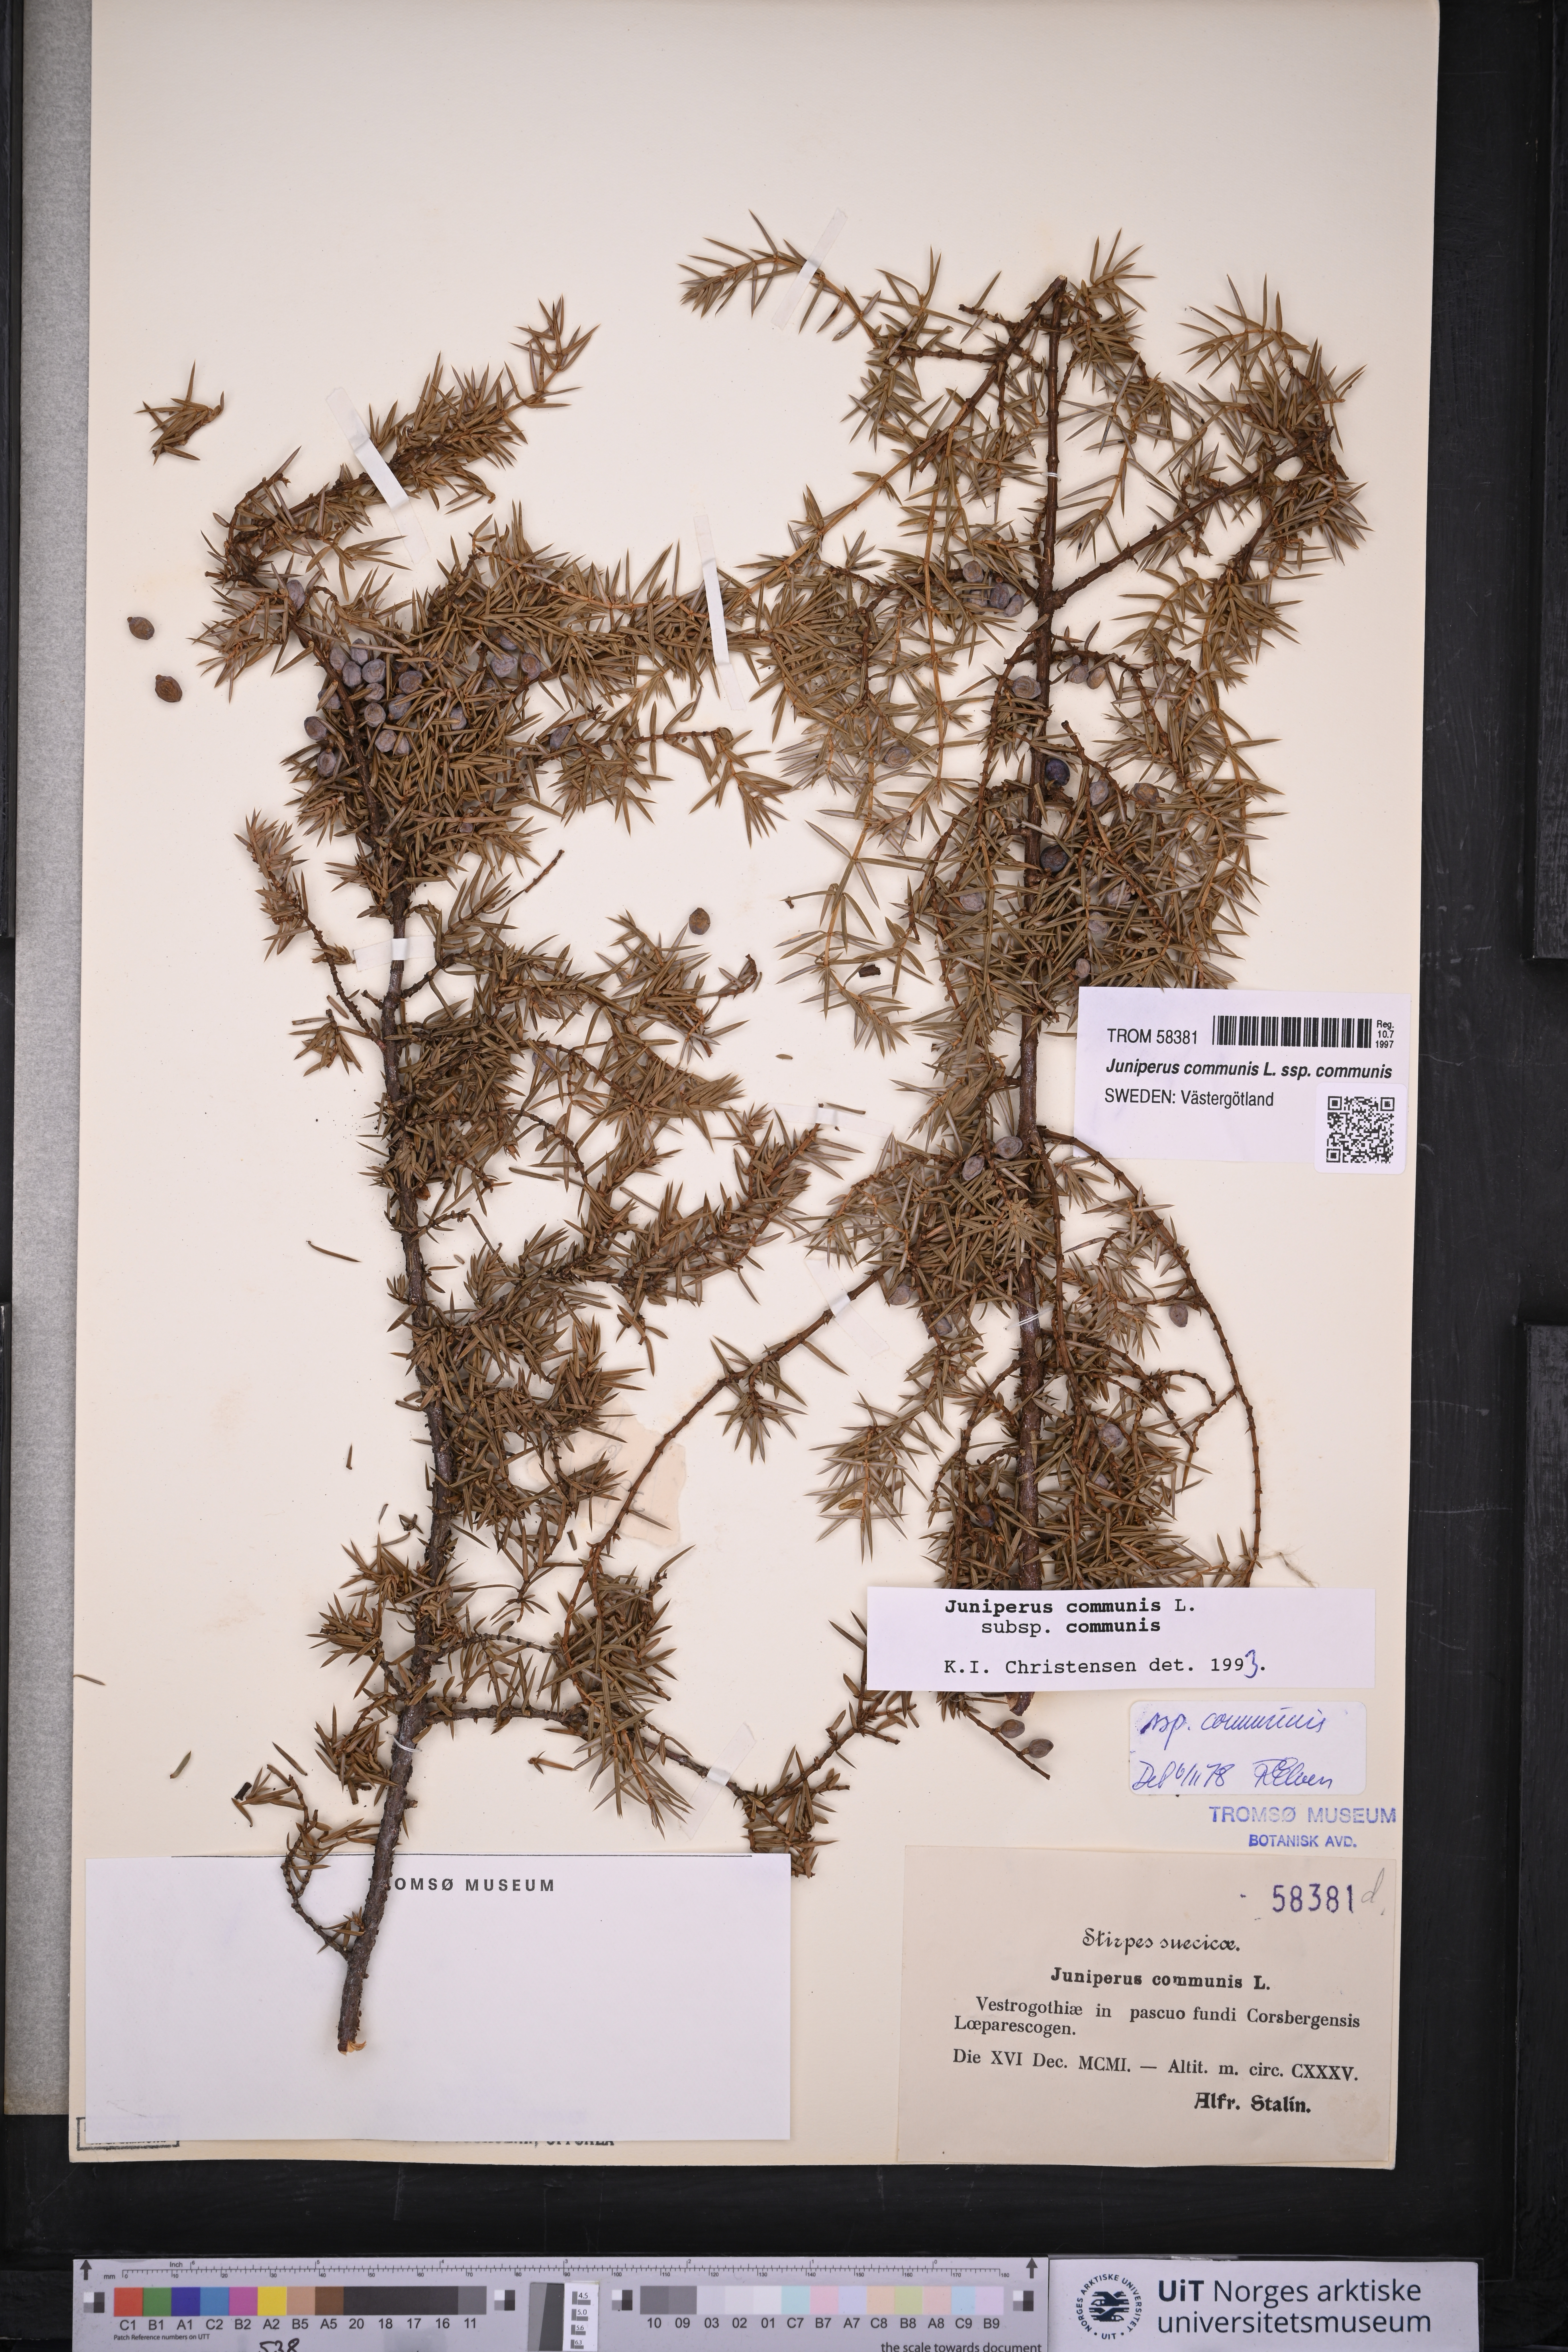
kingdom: Plantae
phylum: Tracheophyta
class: Pinopsida
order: Pinales
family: Cupressaceae
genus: Juniperus
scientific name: Juniperus communis
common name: Common juniper
